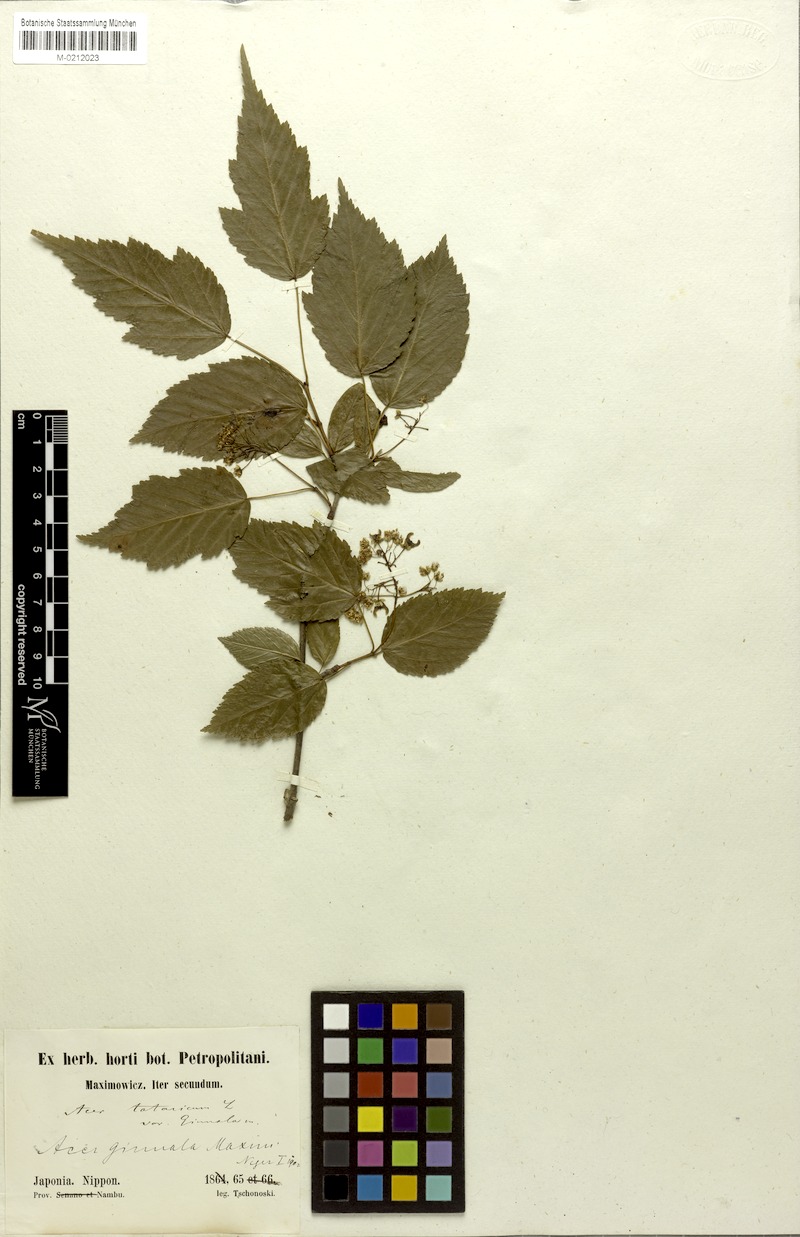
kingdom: Plantae
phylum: Tracheophyta
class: Magnoliopsida
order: Sapindales
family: Sapindaceae
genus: Acer
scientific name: Acer tataricum
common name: Tartar maple
